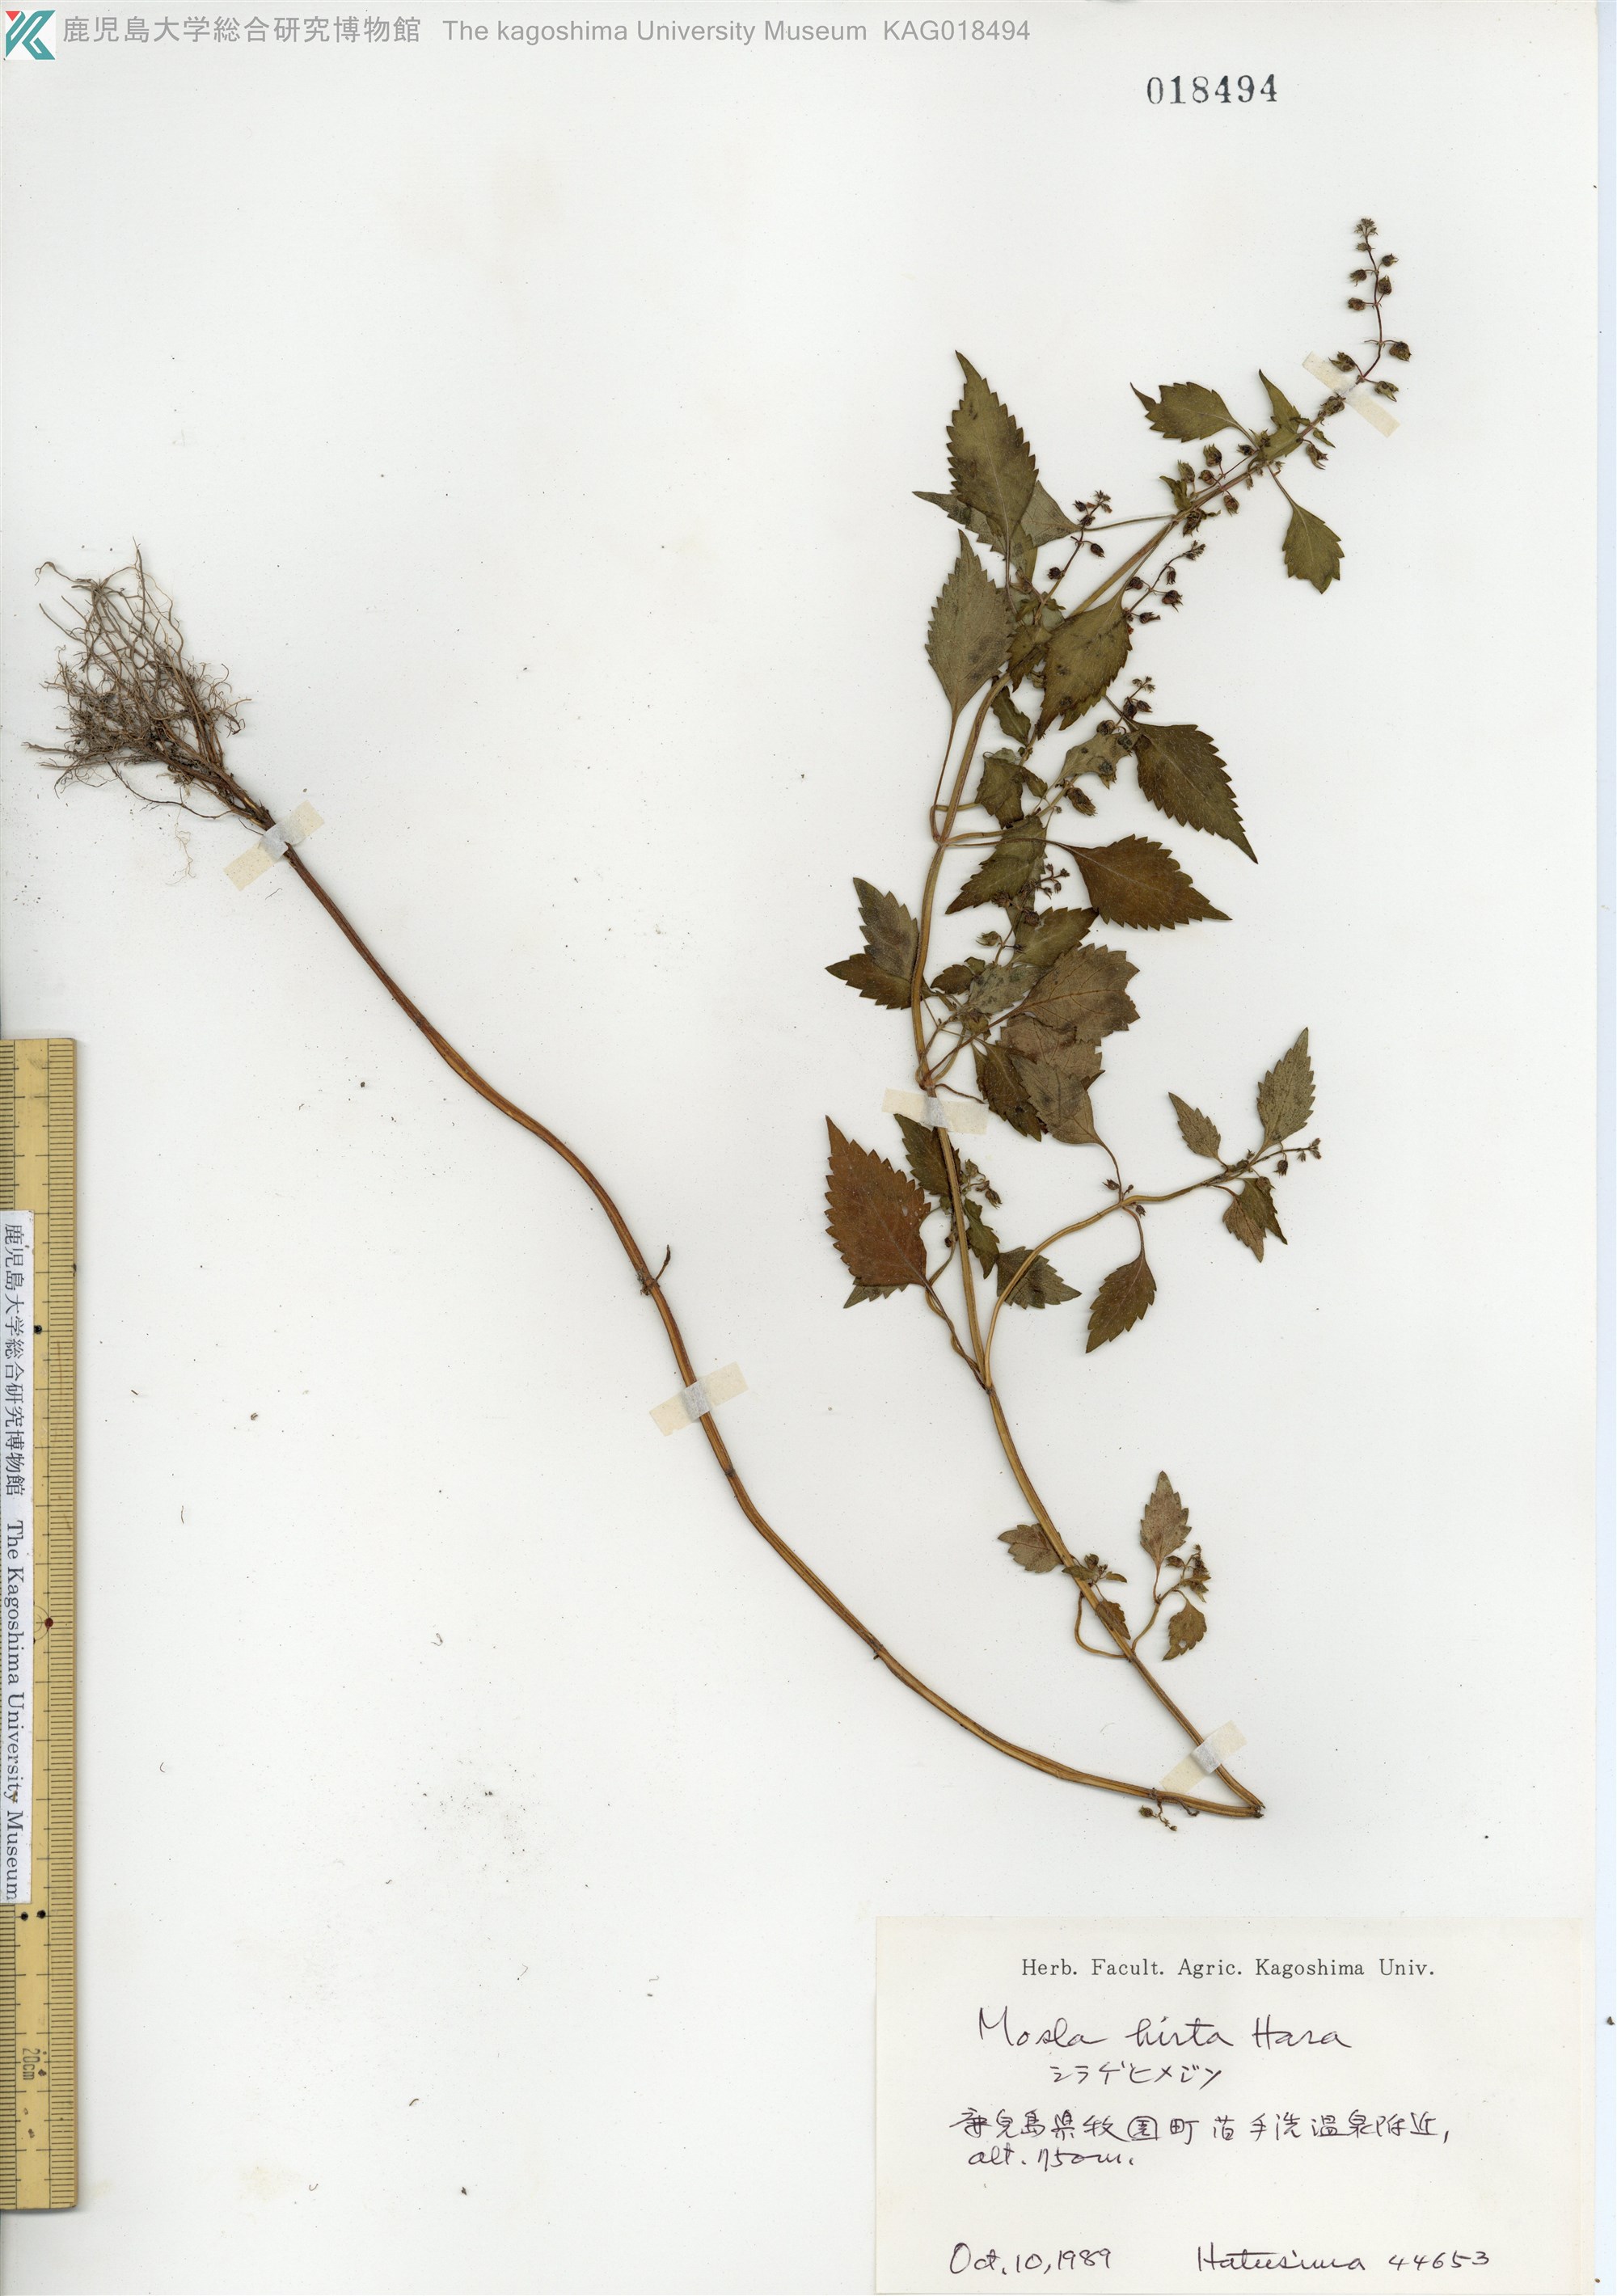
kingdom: Plantae
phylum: Tracheophyta
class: Magnoliopsida
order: Lamiales
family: Lamiaceae
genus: Mosla
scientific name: Mosla dianthera
